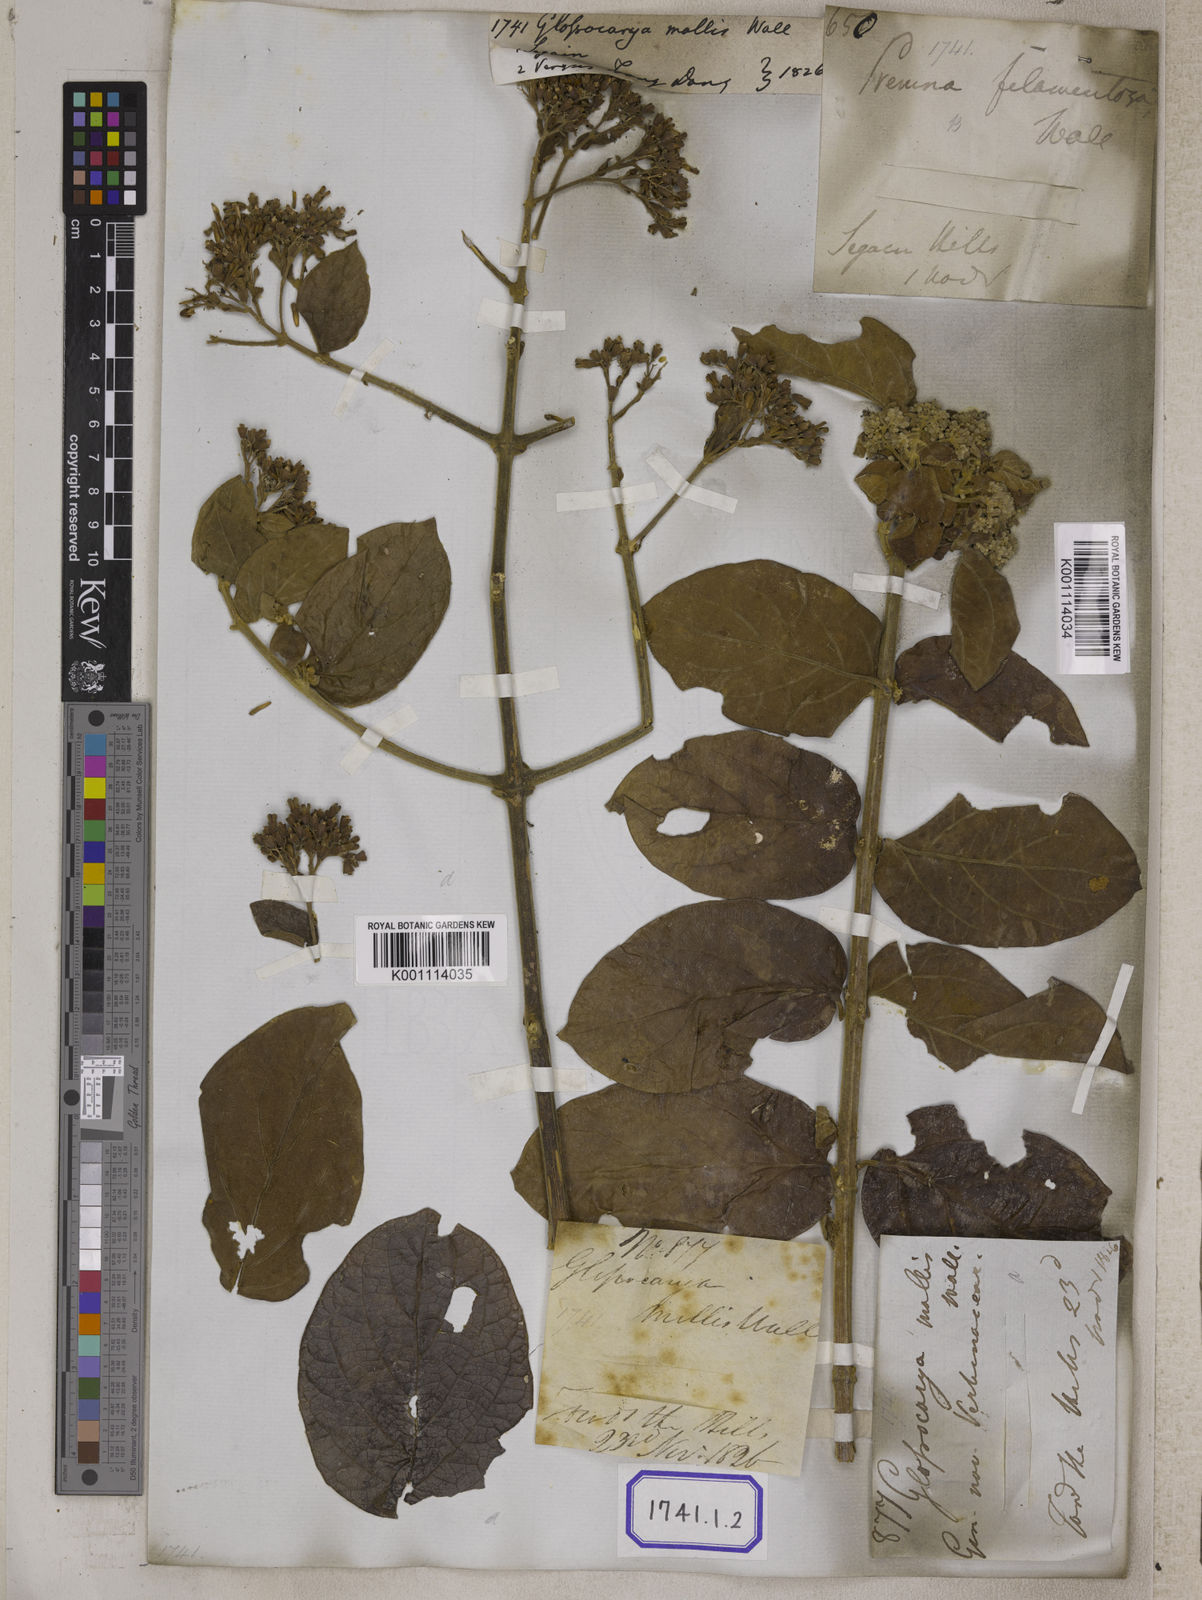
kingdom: Plantae
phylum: Tracheophyta
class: Magnoliopsida
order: Lamiales
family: Lamiaceae
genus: Glossocarya
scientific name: Glossocarya
